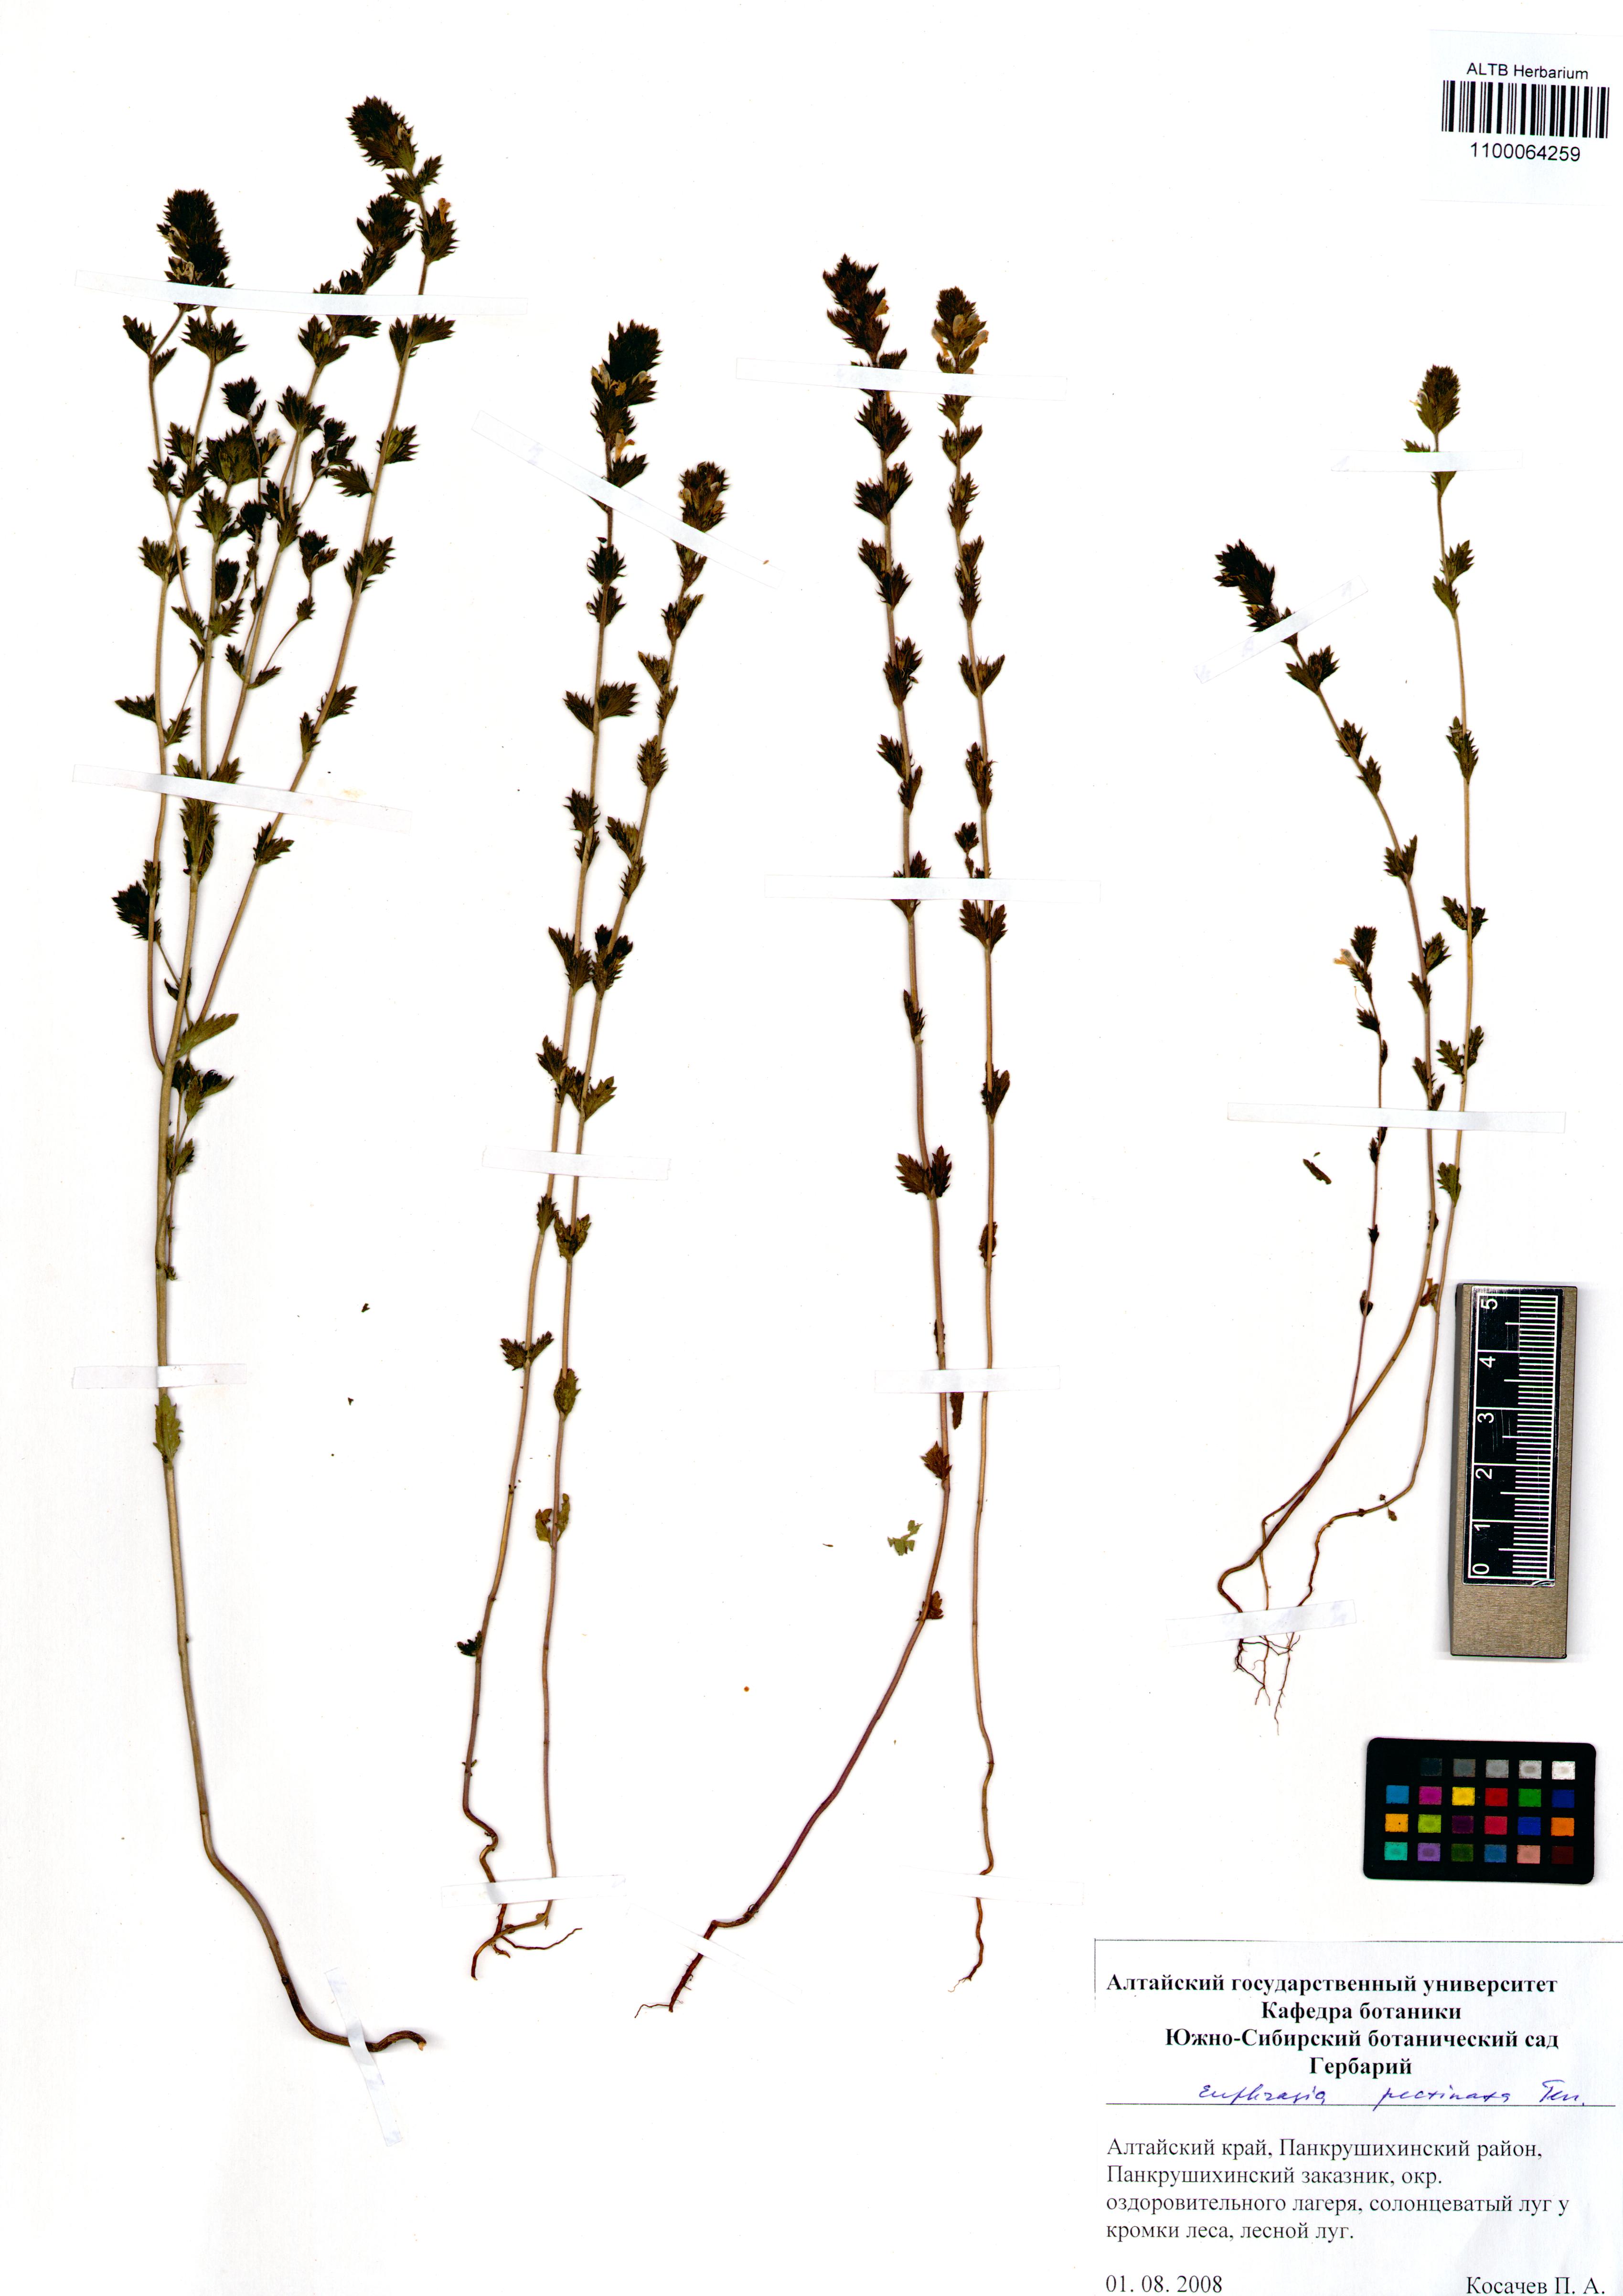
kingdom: Plantae
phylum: Tracheophyta
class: Magnoliopsida
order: Lamiales
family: Orobanchaceae
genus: Euphrasia
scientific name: Euphrasia pectinata
